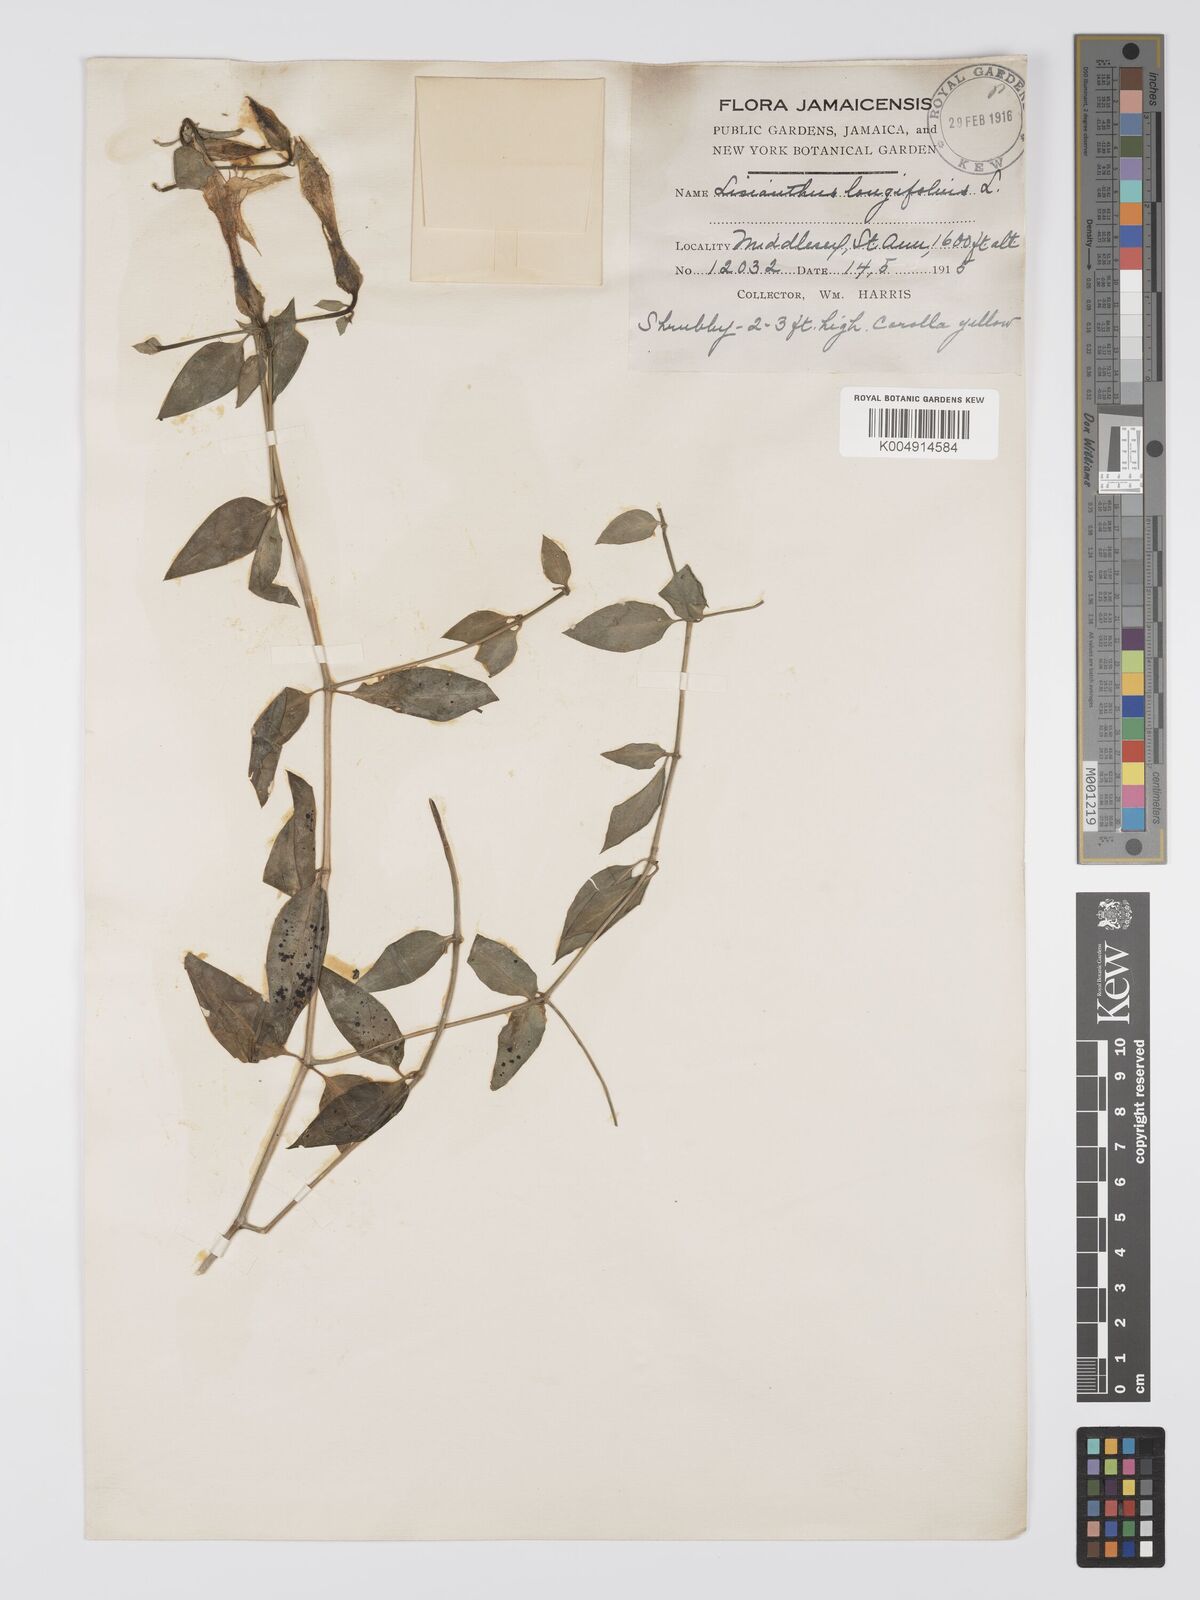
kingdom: Plantae
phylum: Tracheophyta
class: Magnoliopsida
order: Gentianales
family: Gentianaceae
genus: Lisianthus
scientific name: Lisianthus longifolius
